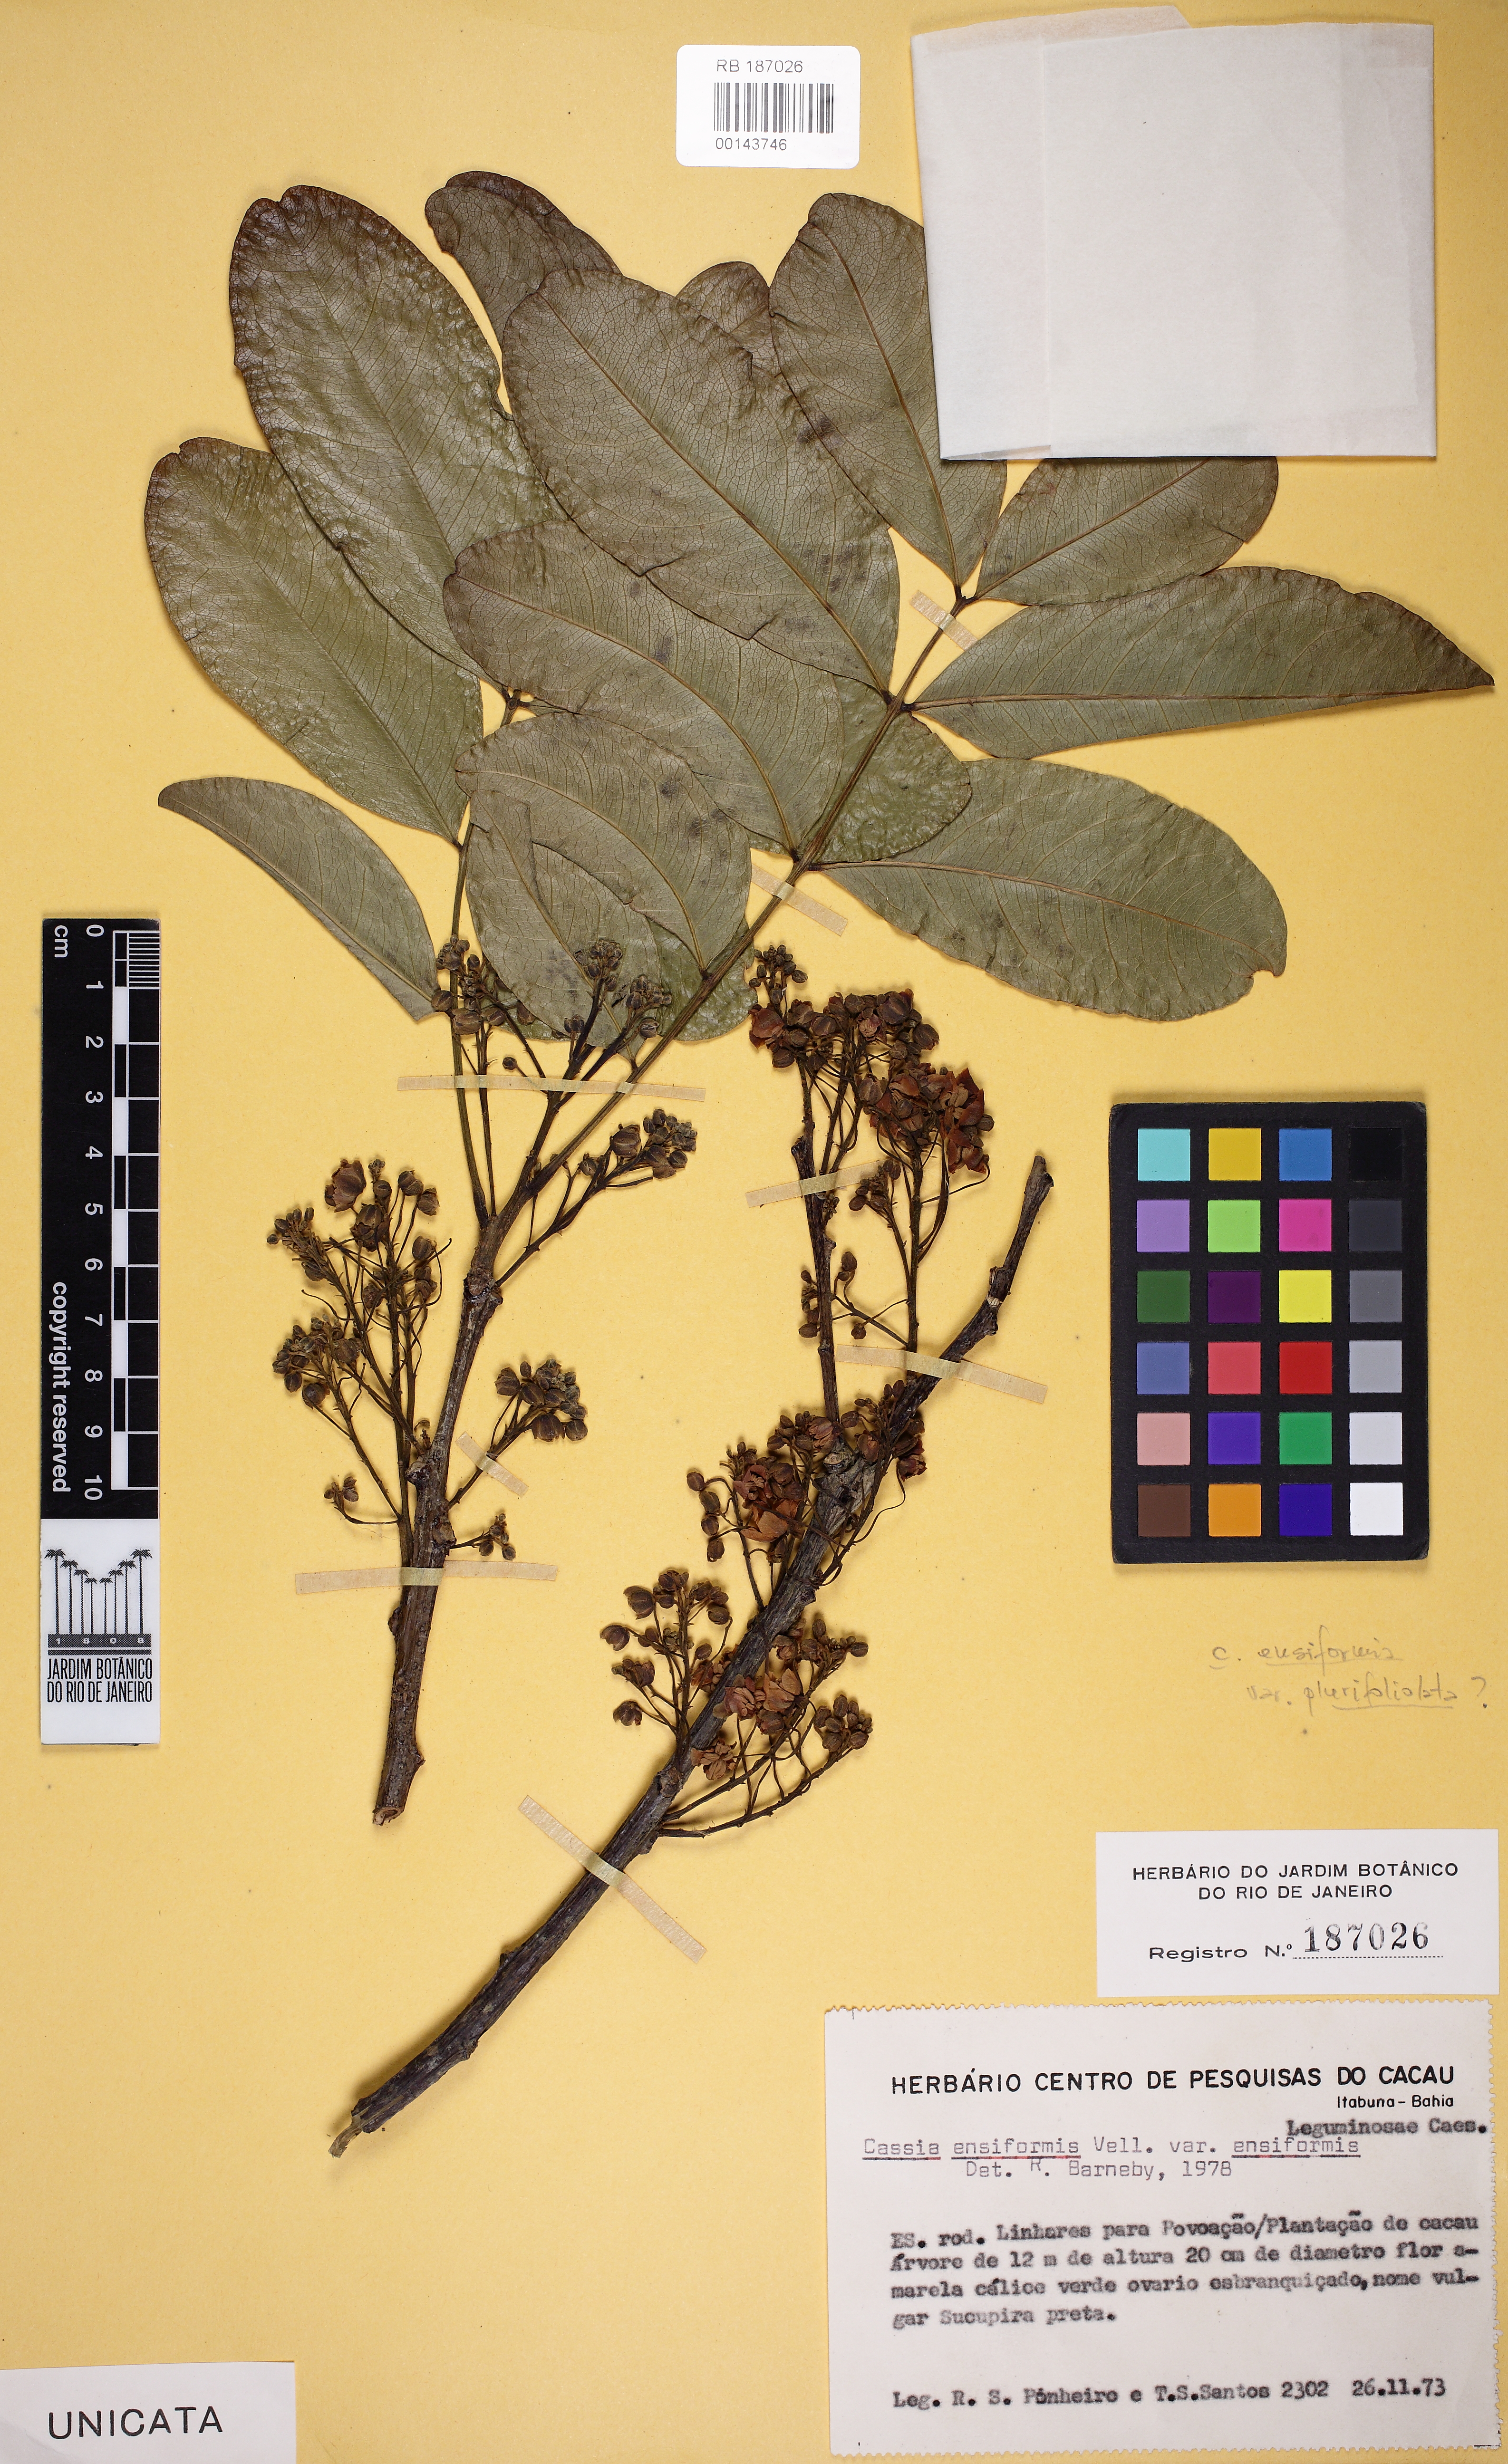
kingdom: Plantae
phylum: Tracheophyta
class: Magnoliopsida
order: Fabales
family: Fabaceae
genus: Chamaecrista
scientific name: Chamaecrista ensiformis
